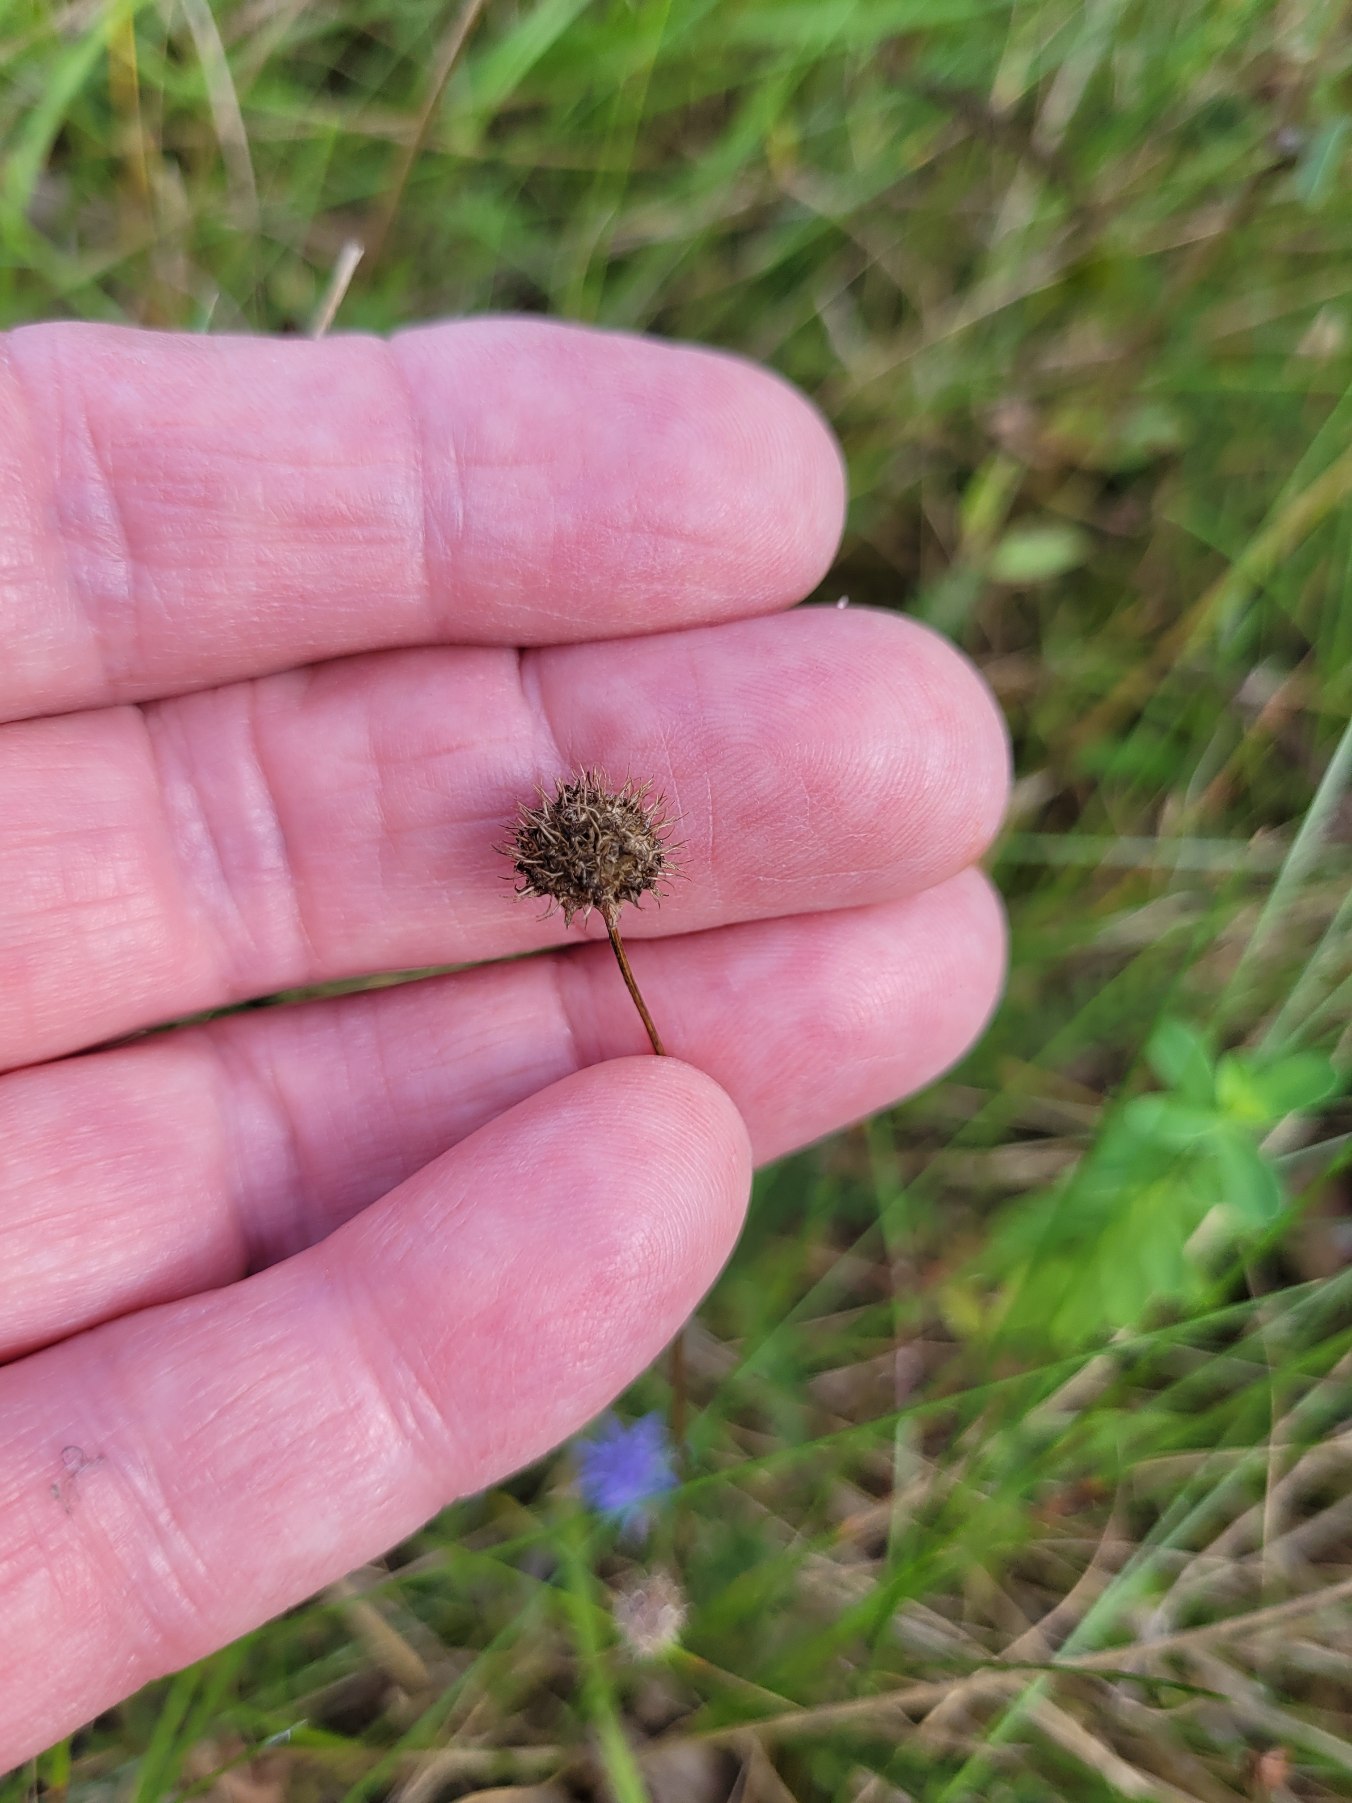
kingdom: Plantae
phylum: Tracheophyta
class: Magnoliopsida
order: Asterales
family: Campanulaceae
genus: Jasione
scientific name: Jasione montana
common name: Blåmunke
